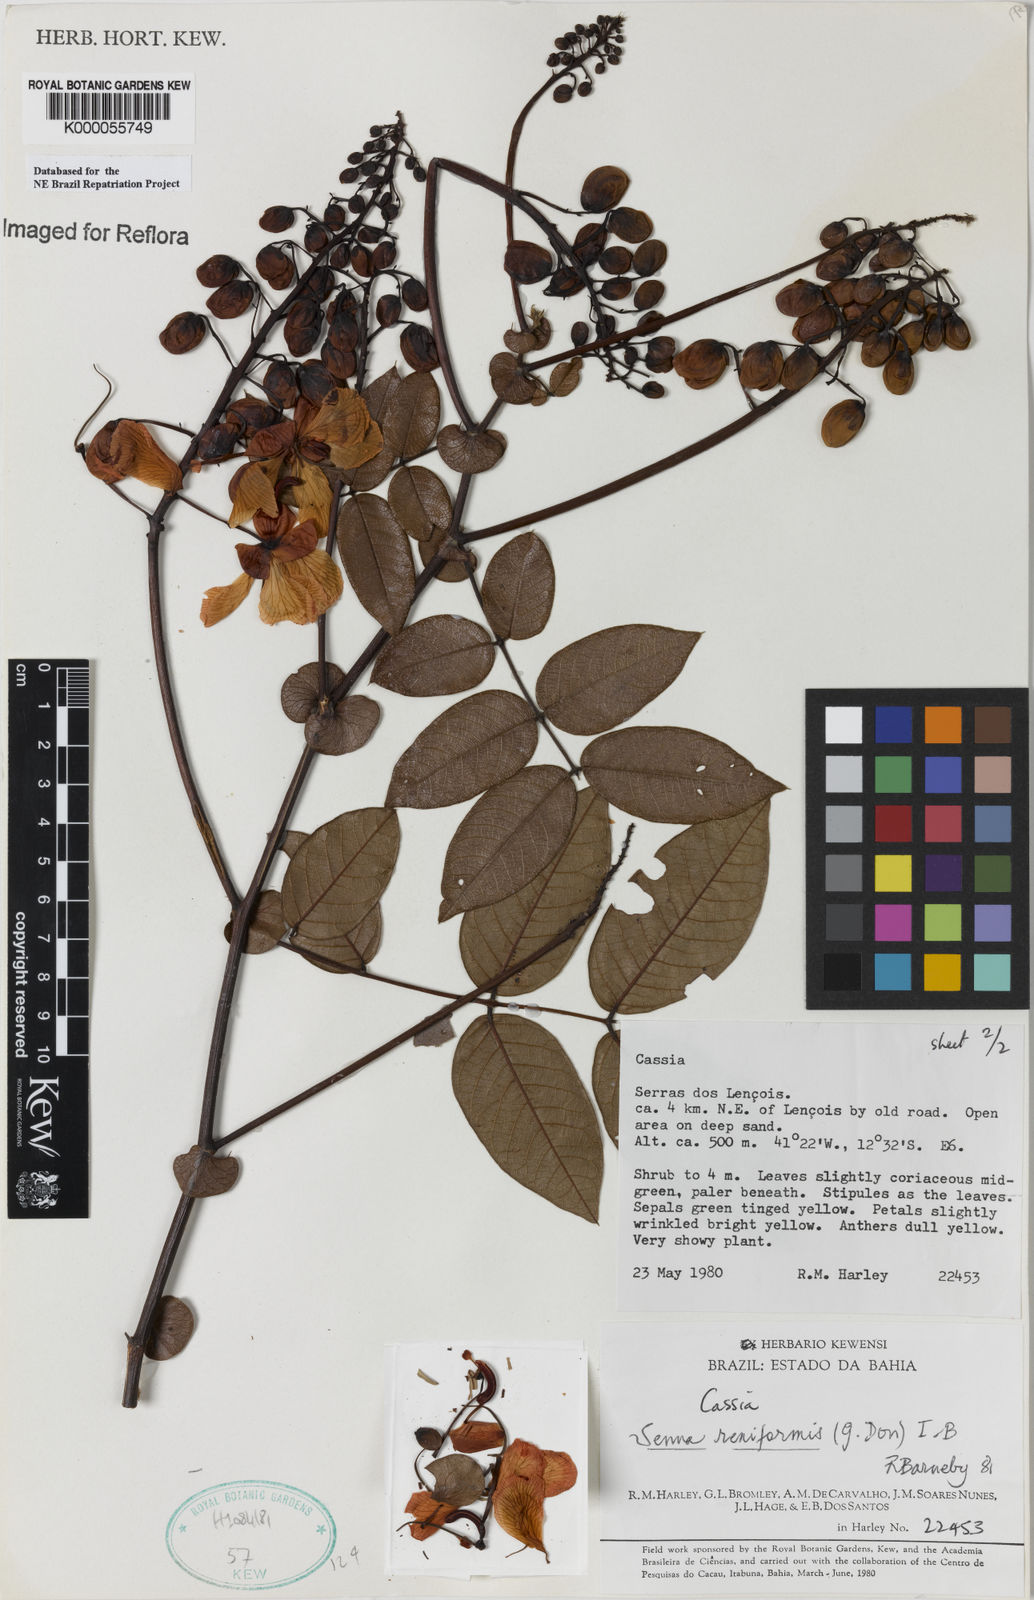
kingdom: Plantae
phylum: Tracheophyta
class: Magnoliopsida
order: Fabales
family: Fabaceae
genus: Senna
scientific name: Senna reniformis
